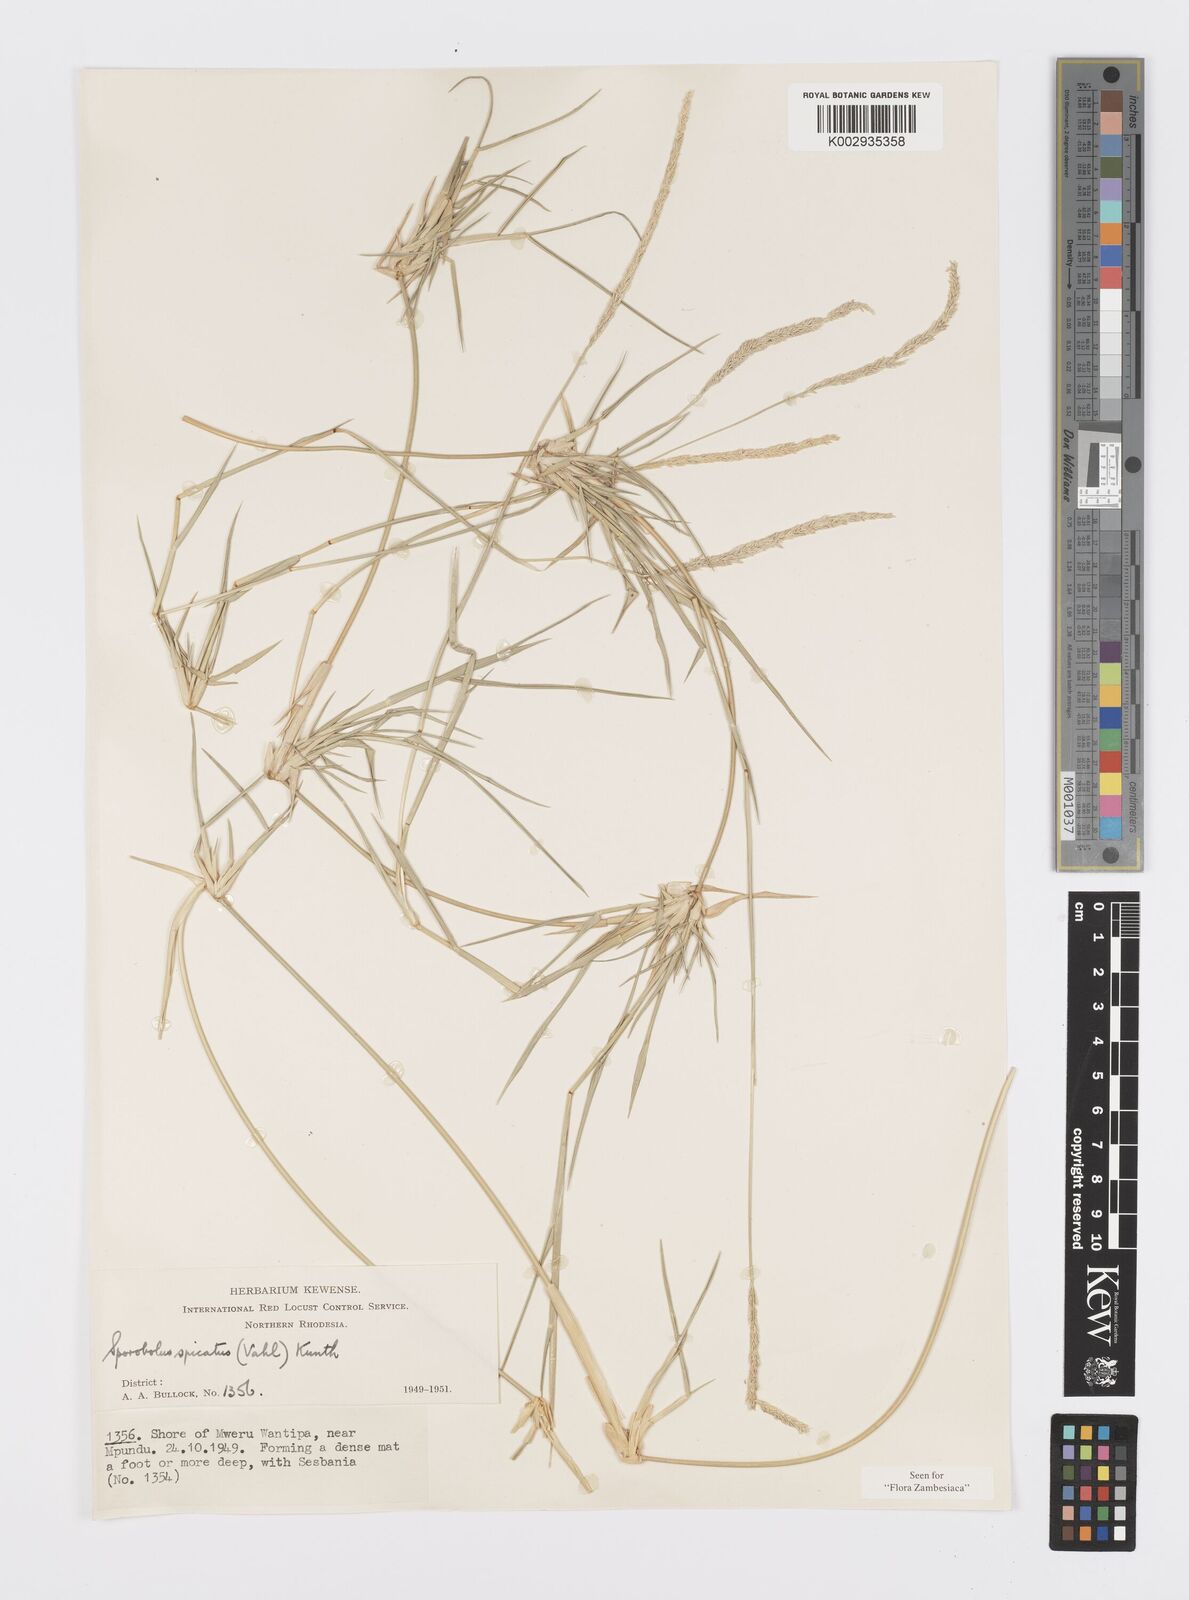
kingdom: Plantae
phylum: Tracheophyta
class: Liliopsida
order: Poales
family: Poaceae
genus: Sporobolus
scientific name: Sporobolus spicatus
